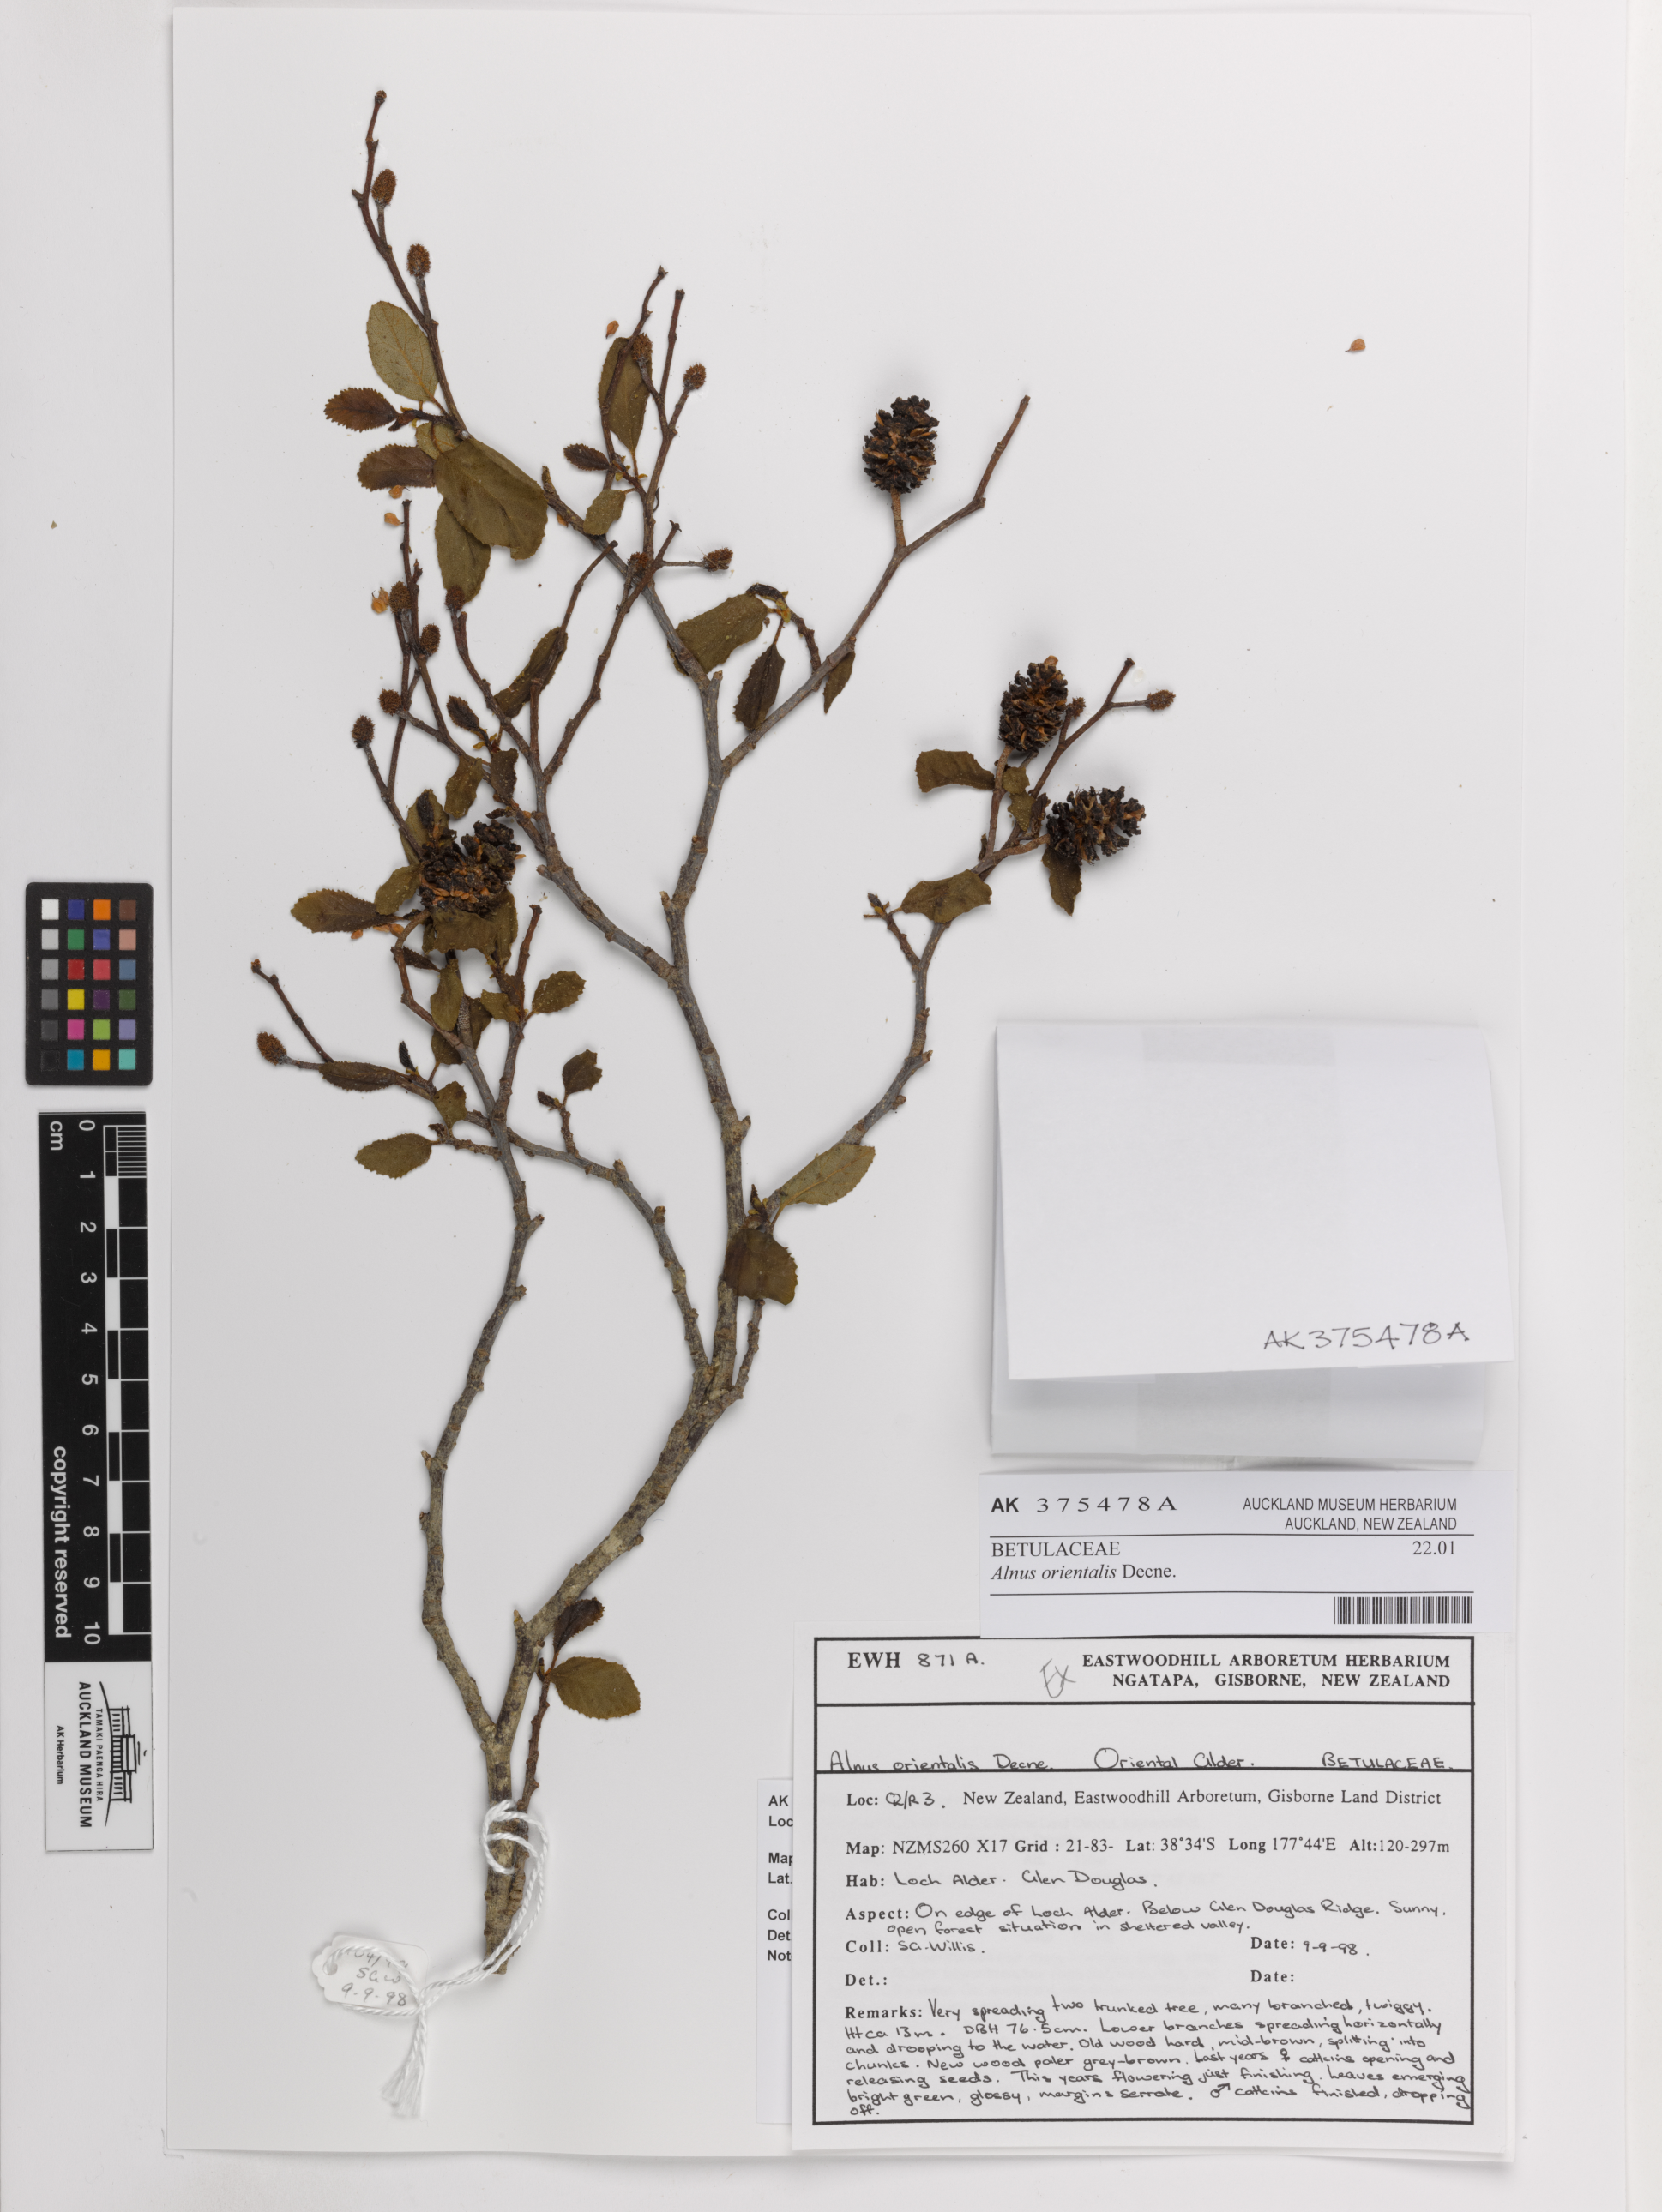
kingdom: Plantae
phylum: Tracheophyta
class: Magnoliopsida
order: Fagales
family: Betulaceae
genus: Alnus
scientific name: Alnus orientalis
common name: Oriental alder
